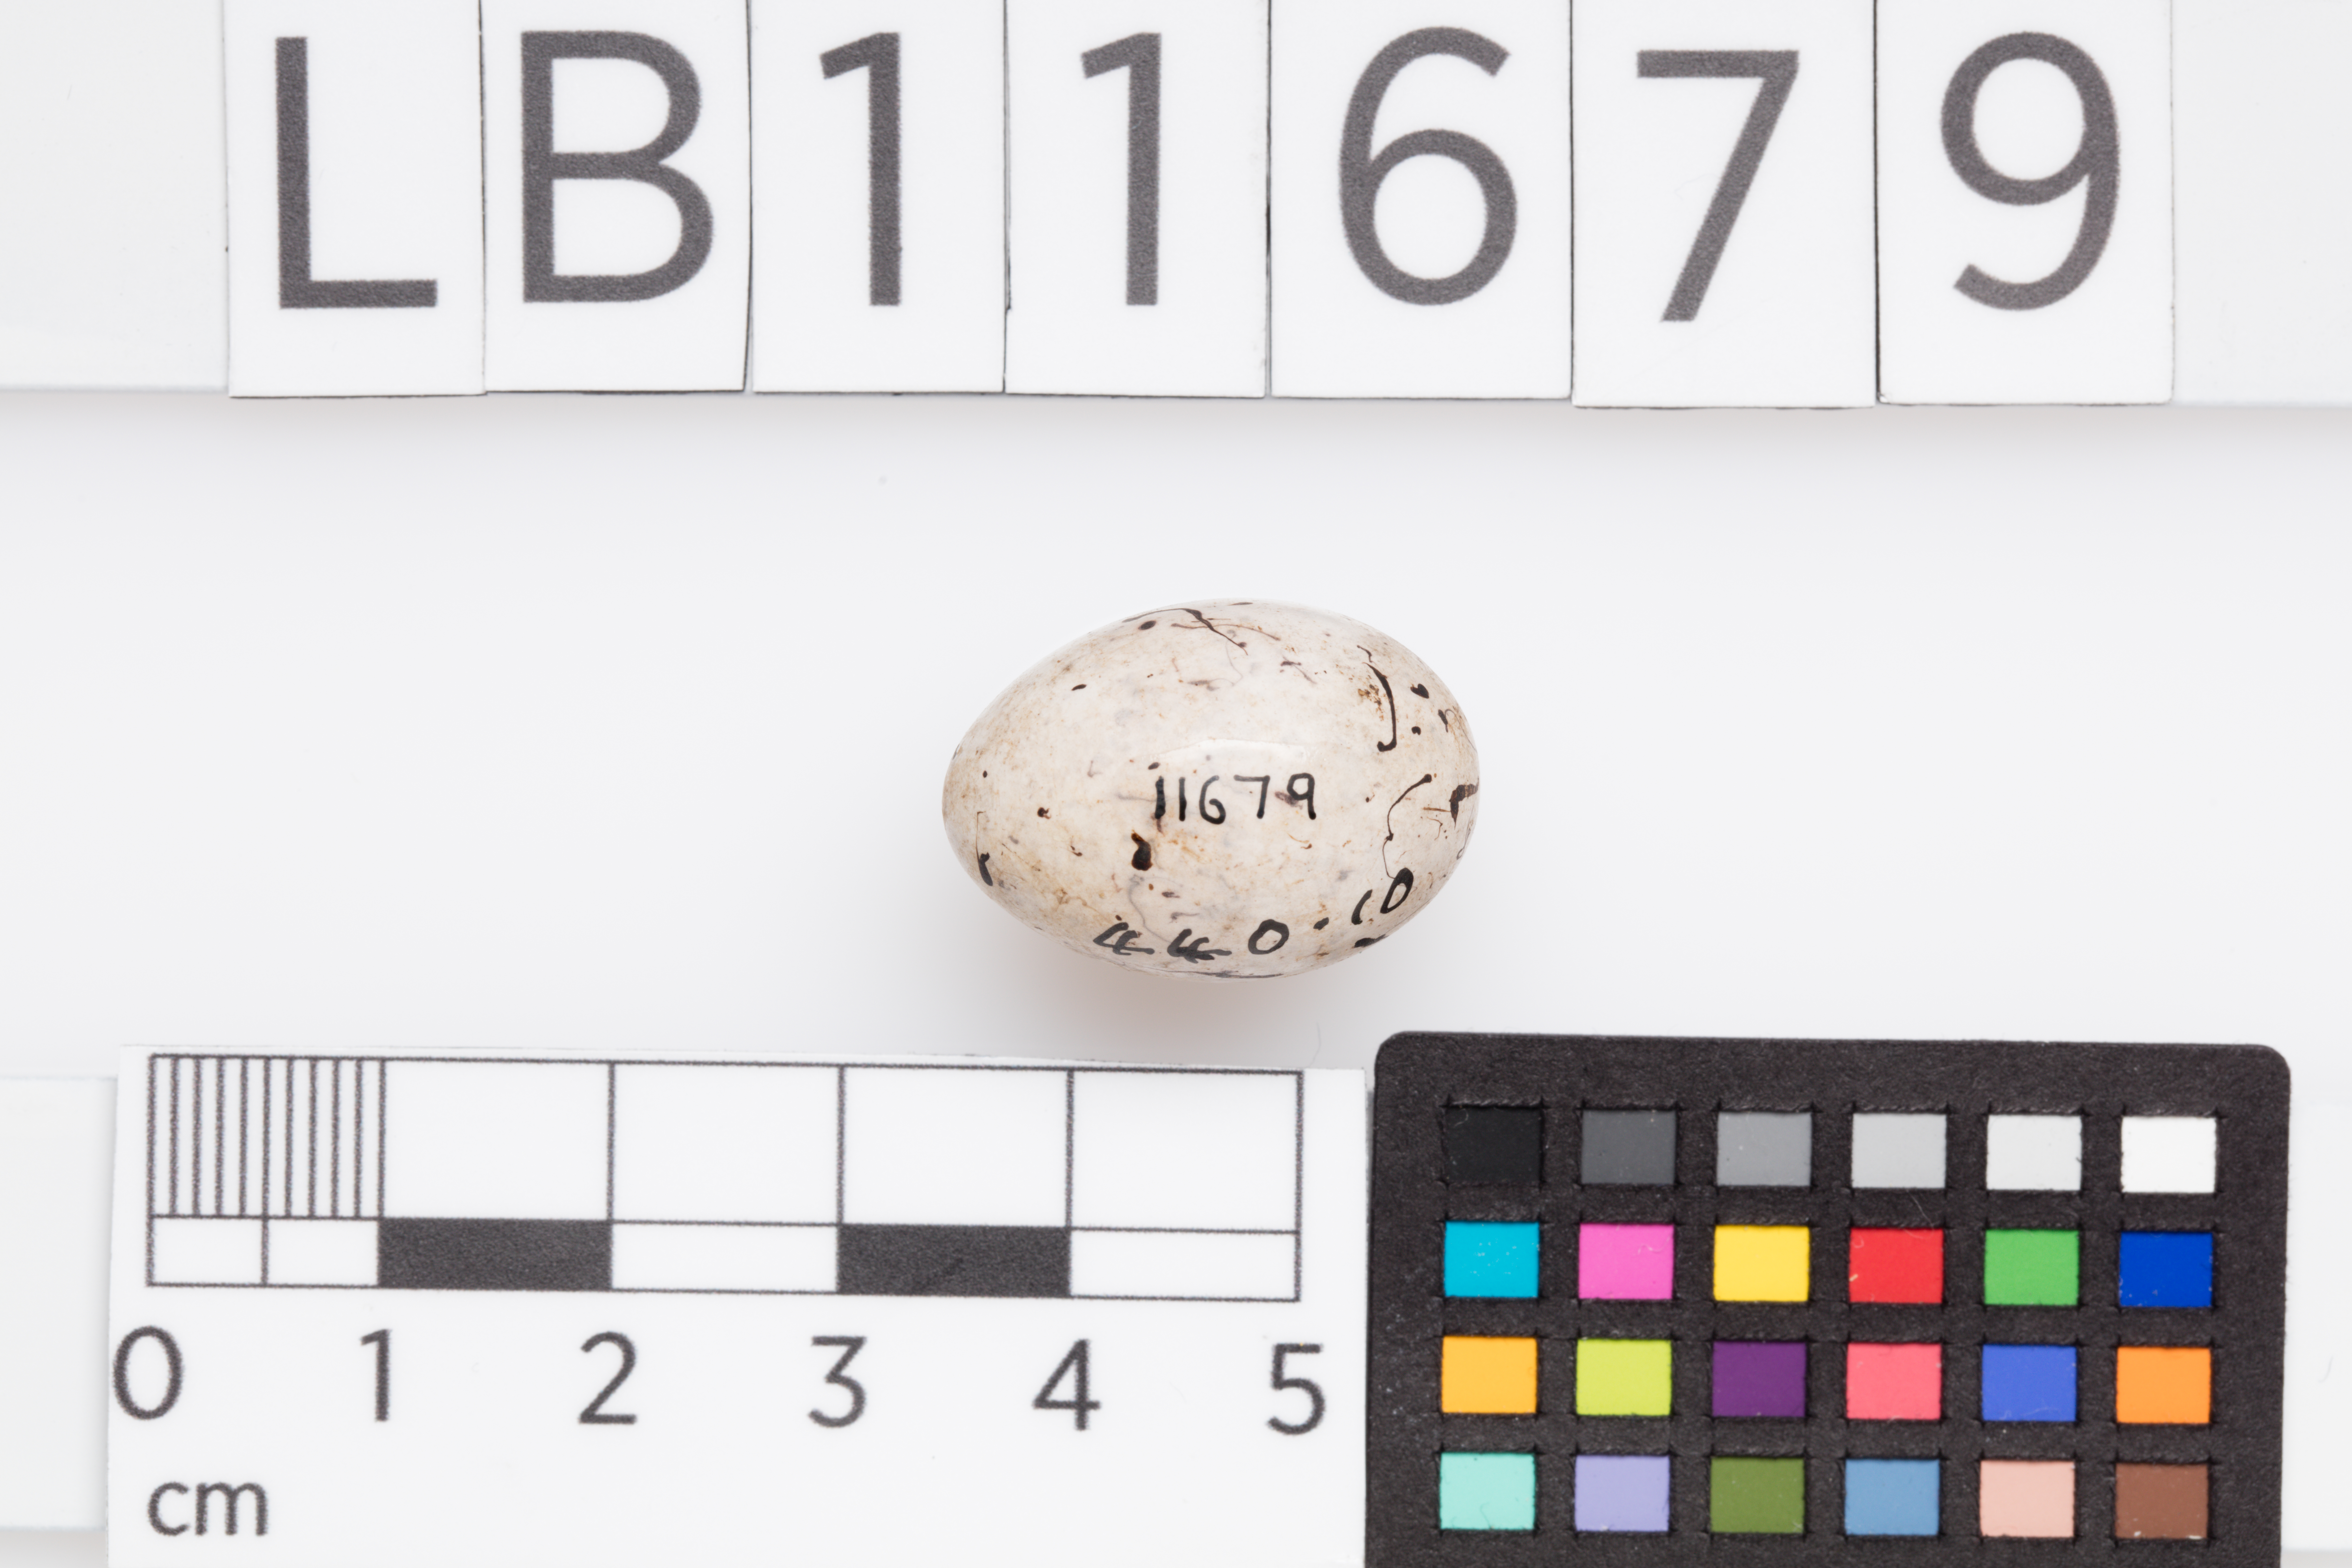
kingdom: Animalia
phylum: Chordata
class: Aves
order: Passeriformes
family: Emberizidae
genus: Emberiza
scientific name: Emberiza citrinella
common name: Yellowhammer
